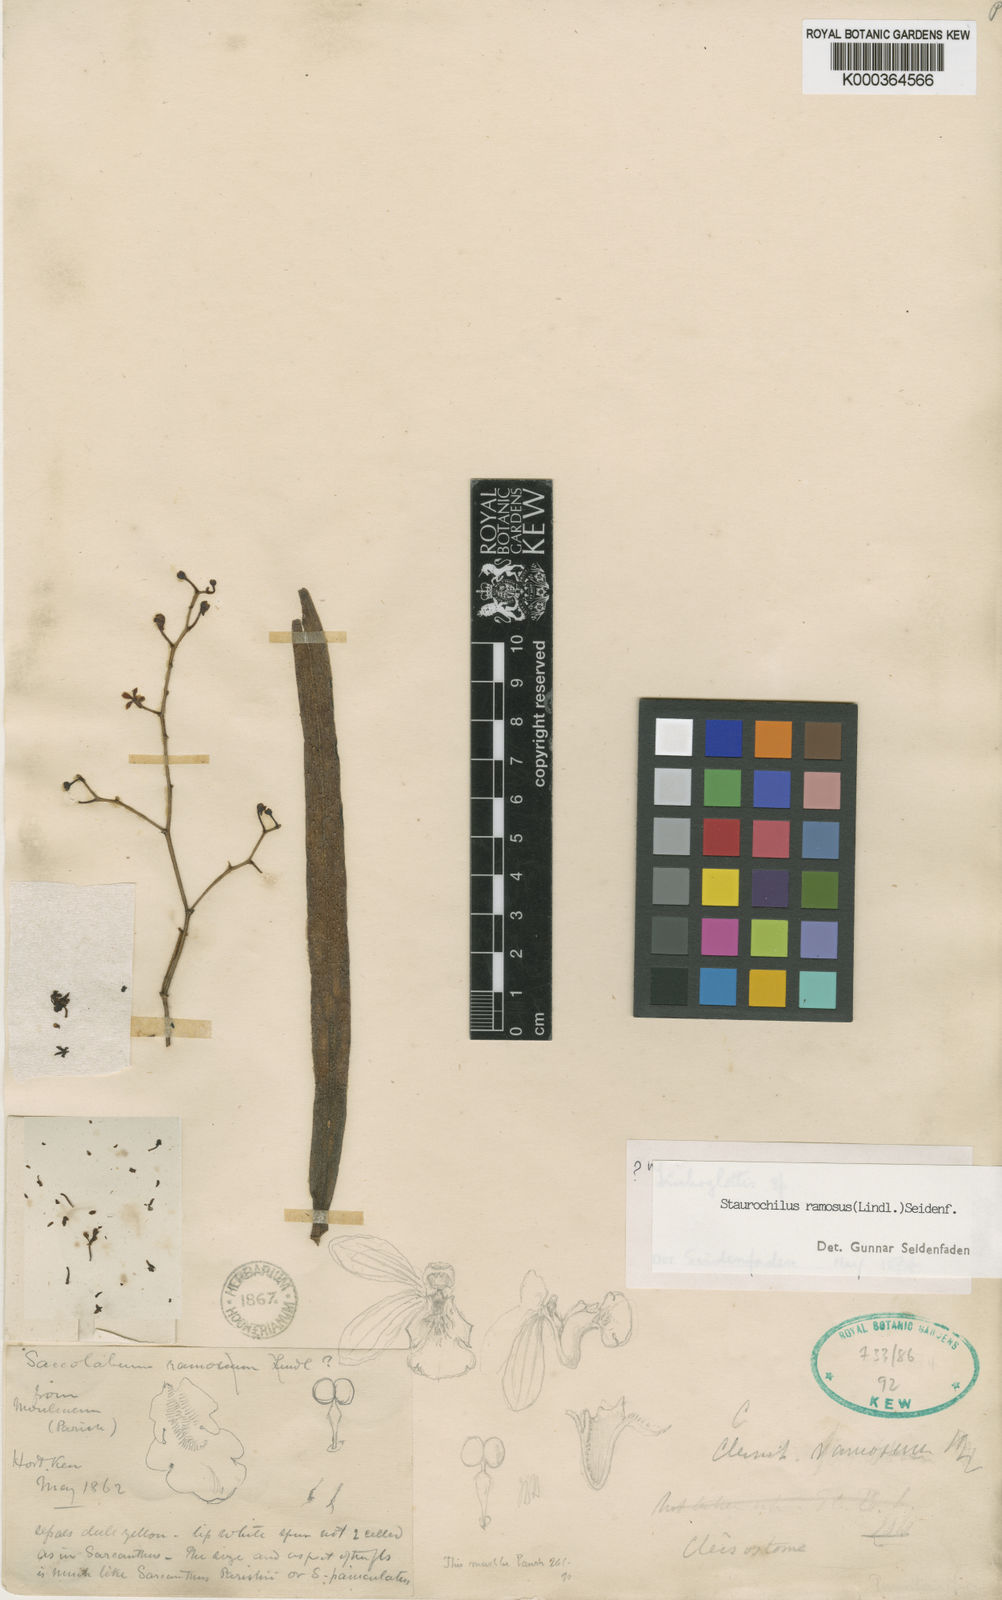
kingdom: Plantae
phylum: Tracheophyta
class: Liliopsida
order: Asparagales
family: Orchidaceae
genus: Trichoglottis
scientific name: Trichoglottis ramosa
